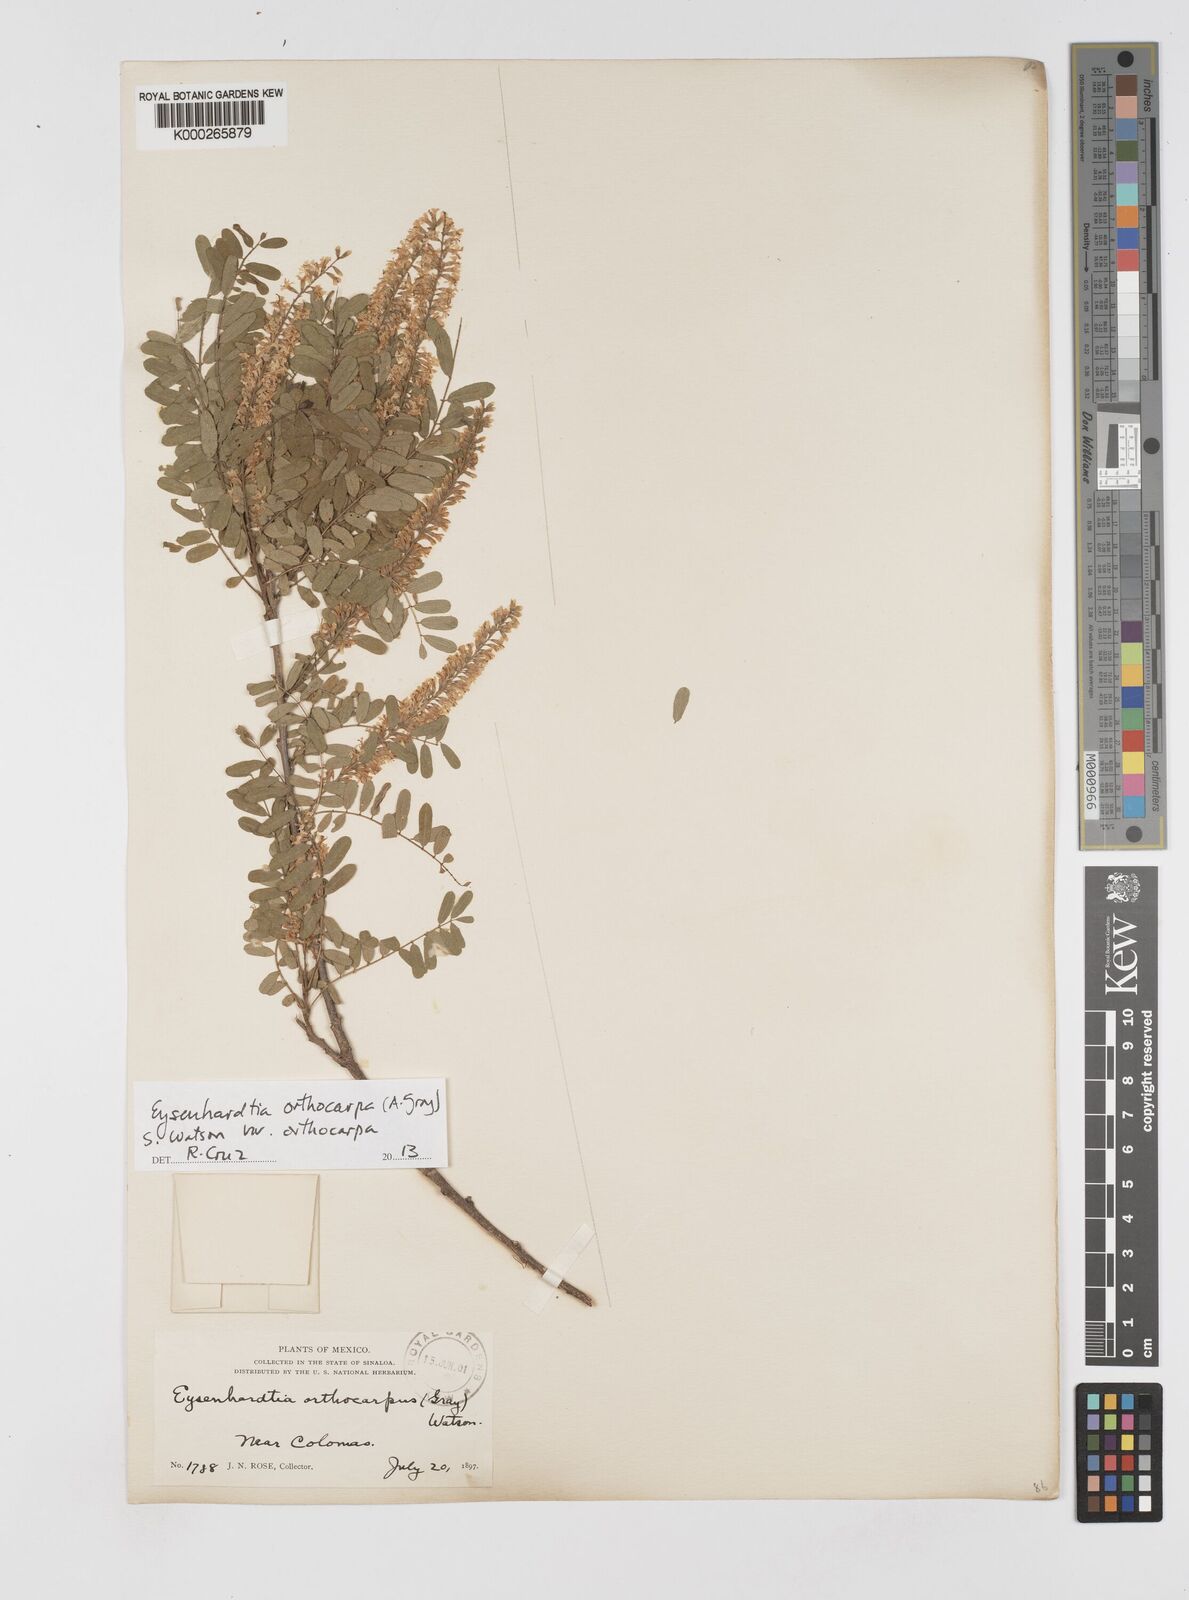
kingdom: Plantae
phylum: Tracheophyta
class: Magnoliopsida
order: Fabales
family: Fabaceae
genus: Eysenhardtia
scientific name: Eysenhardtia orthocarpa
